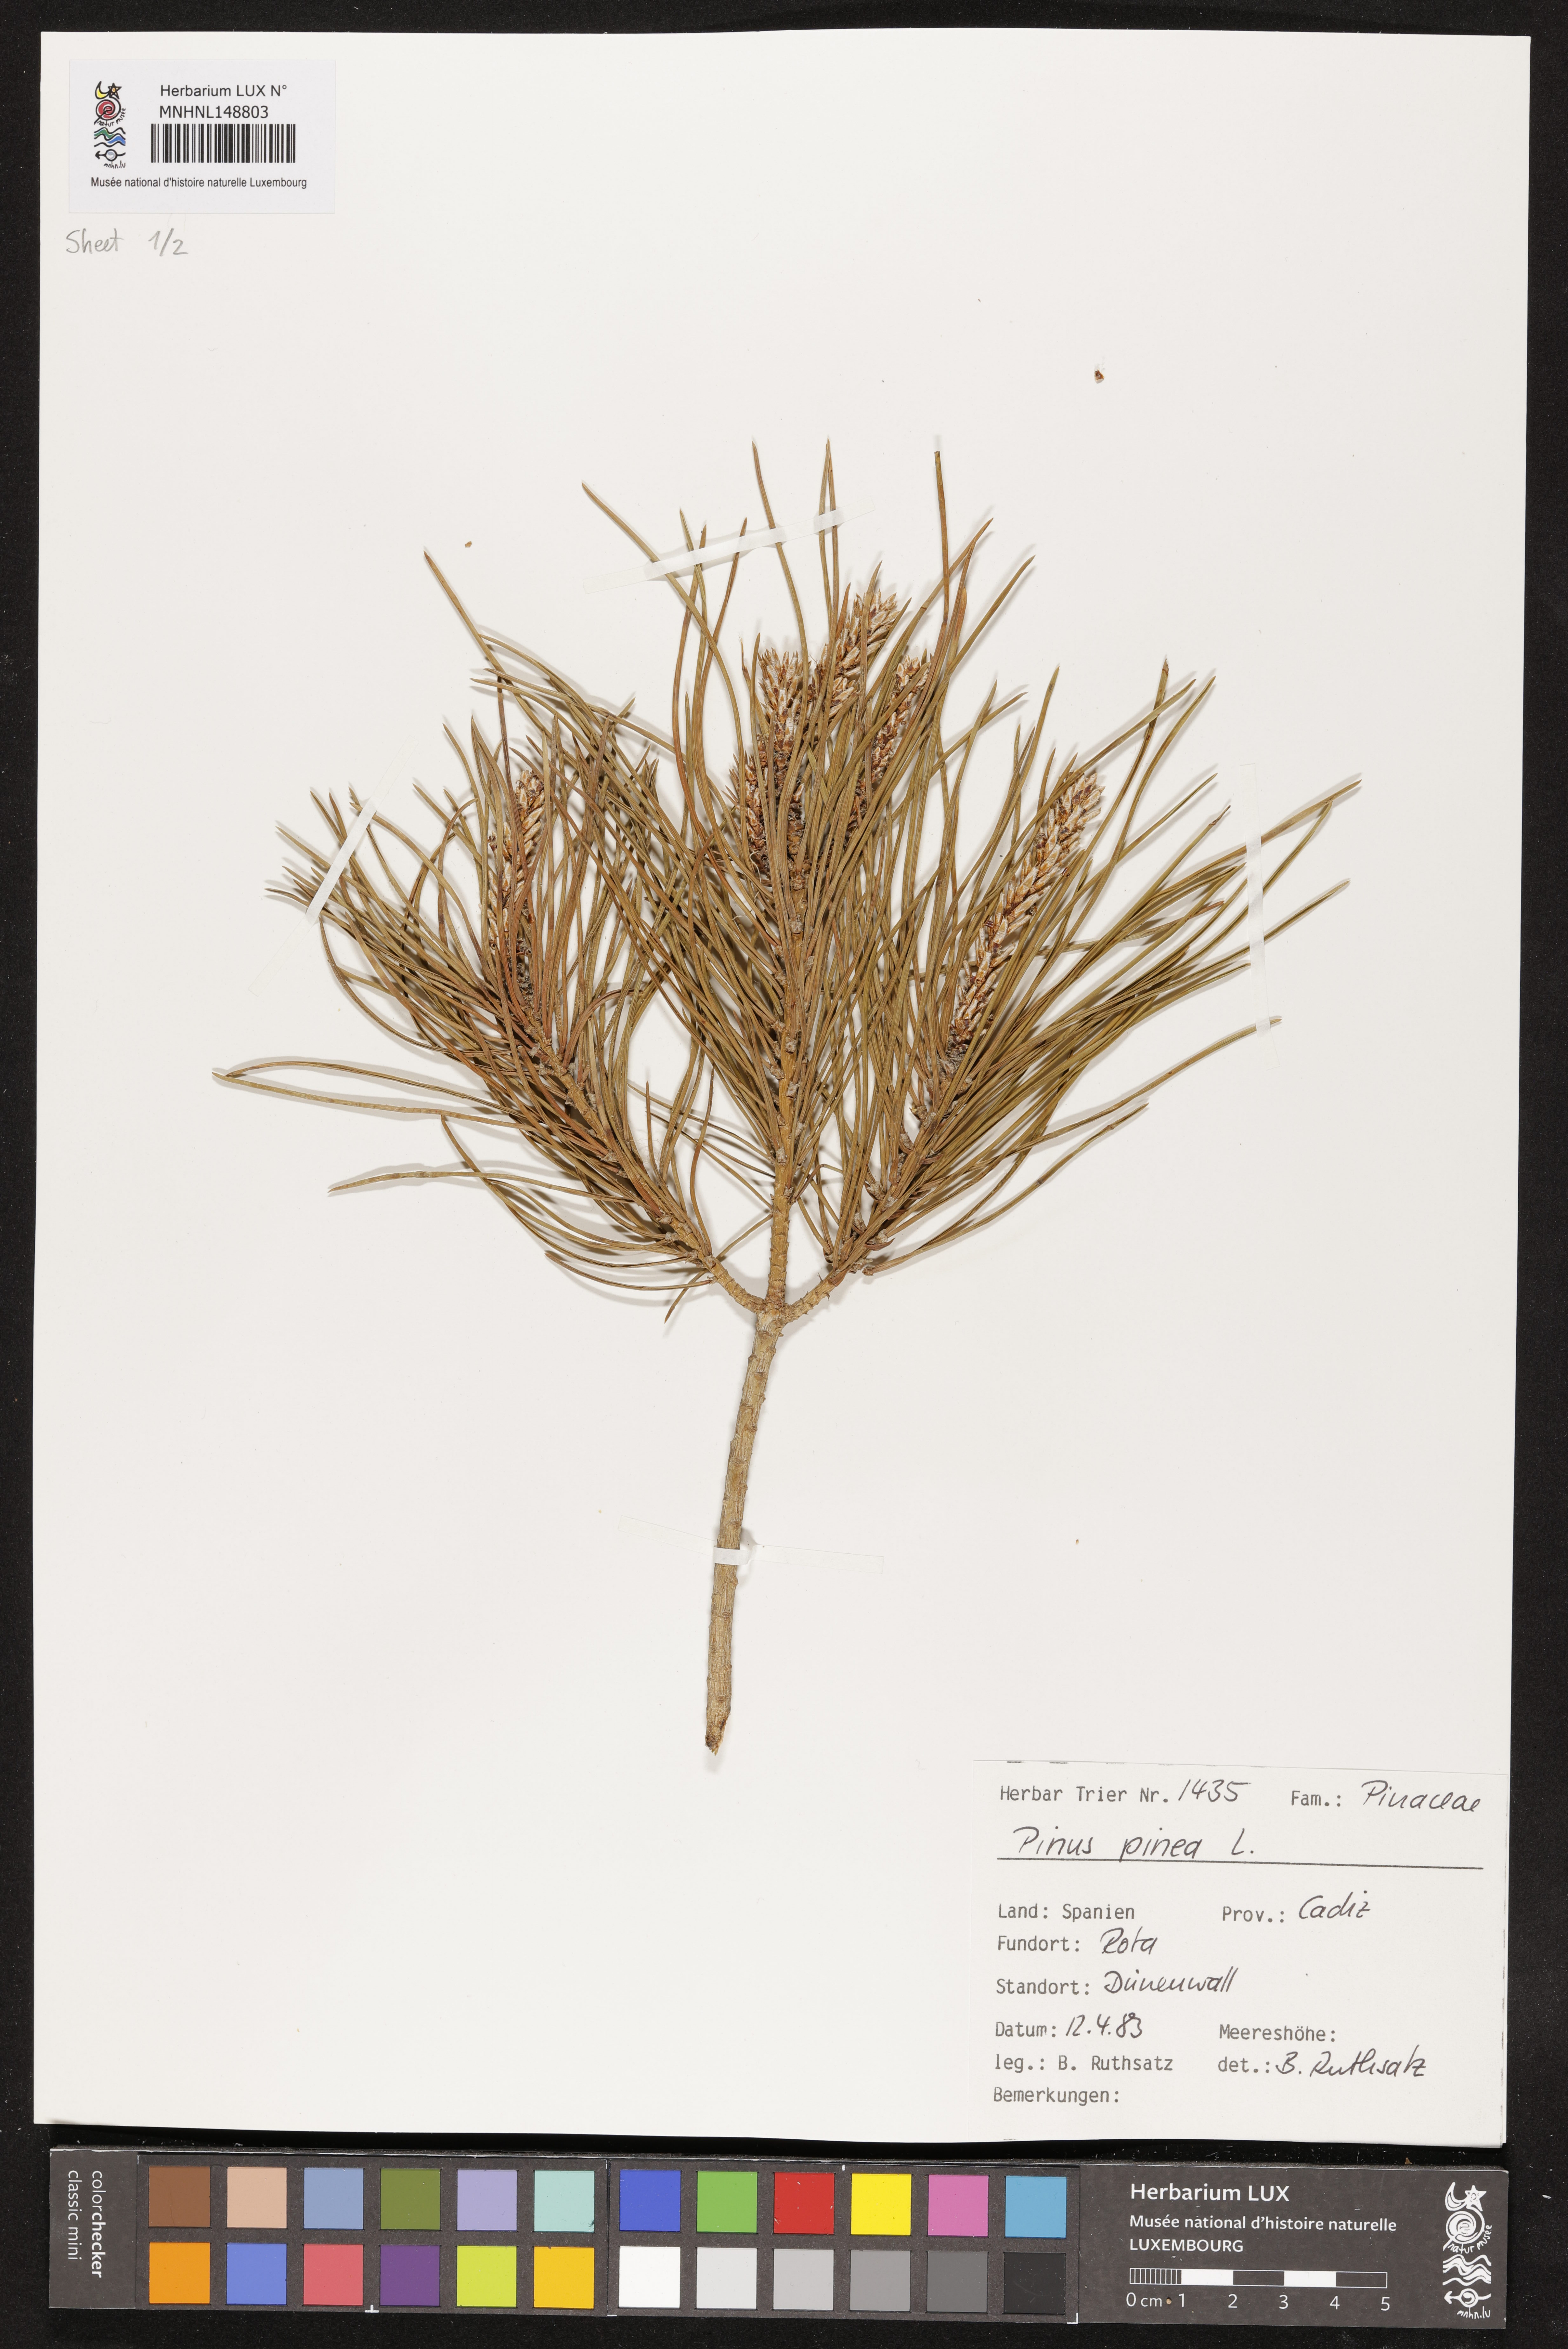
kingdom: Plantae
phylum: Tracheophyta
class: Pinopsida
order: Pinales
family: Pinaceae
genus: Pinus
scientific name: Pinus pinea
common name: Italian stone pine
